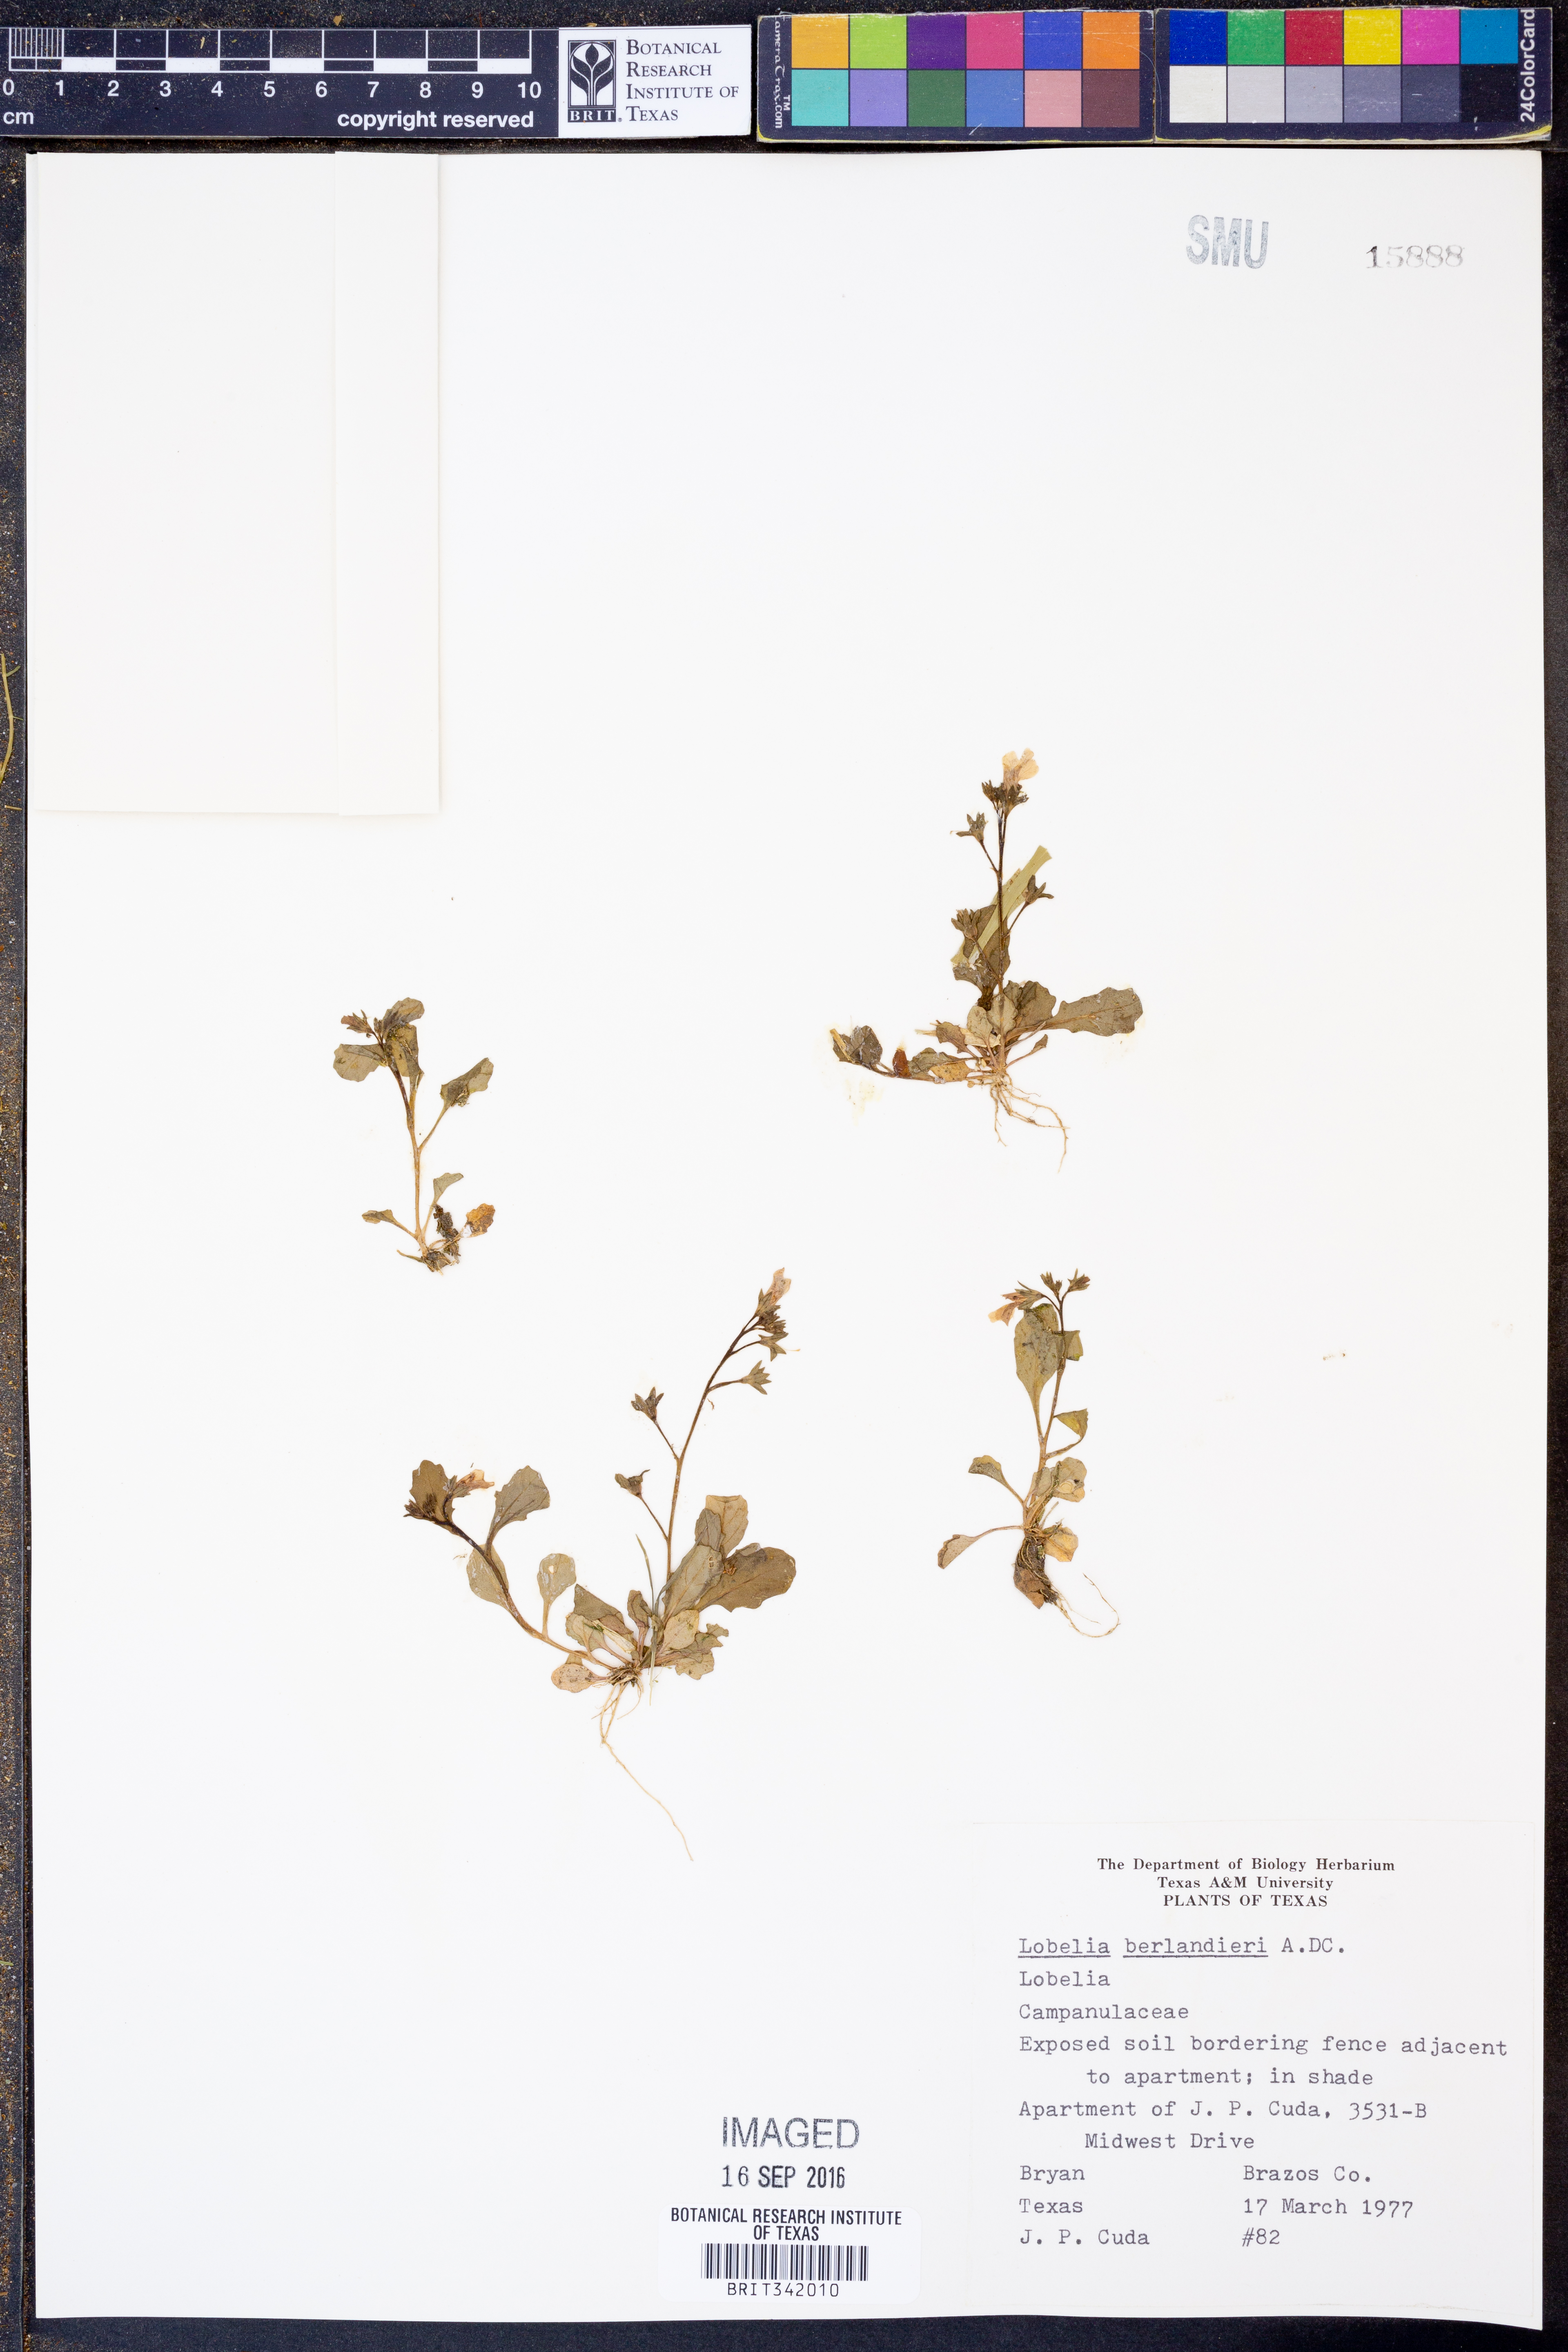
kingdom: Plantae
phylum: Tracheophyta
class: Magnoliopsida
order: Asterales
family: Campanulaceae
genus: Lobelia
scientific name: Lobelia berlandieri
